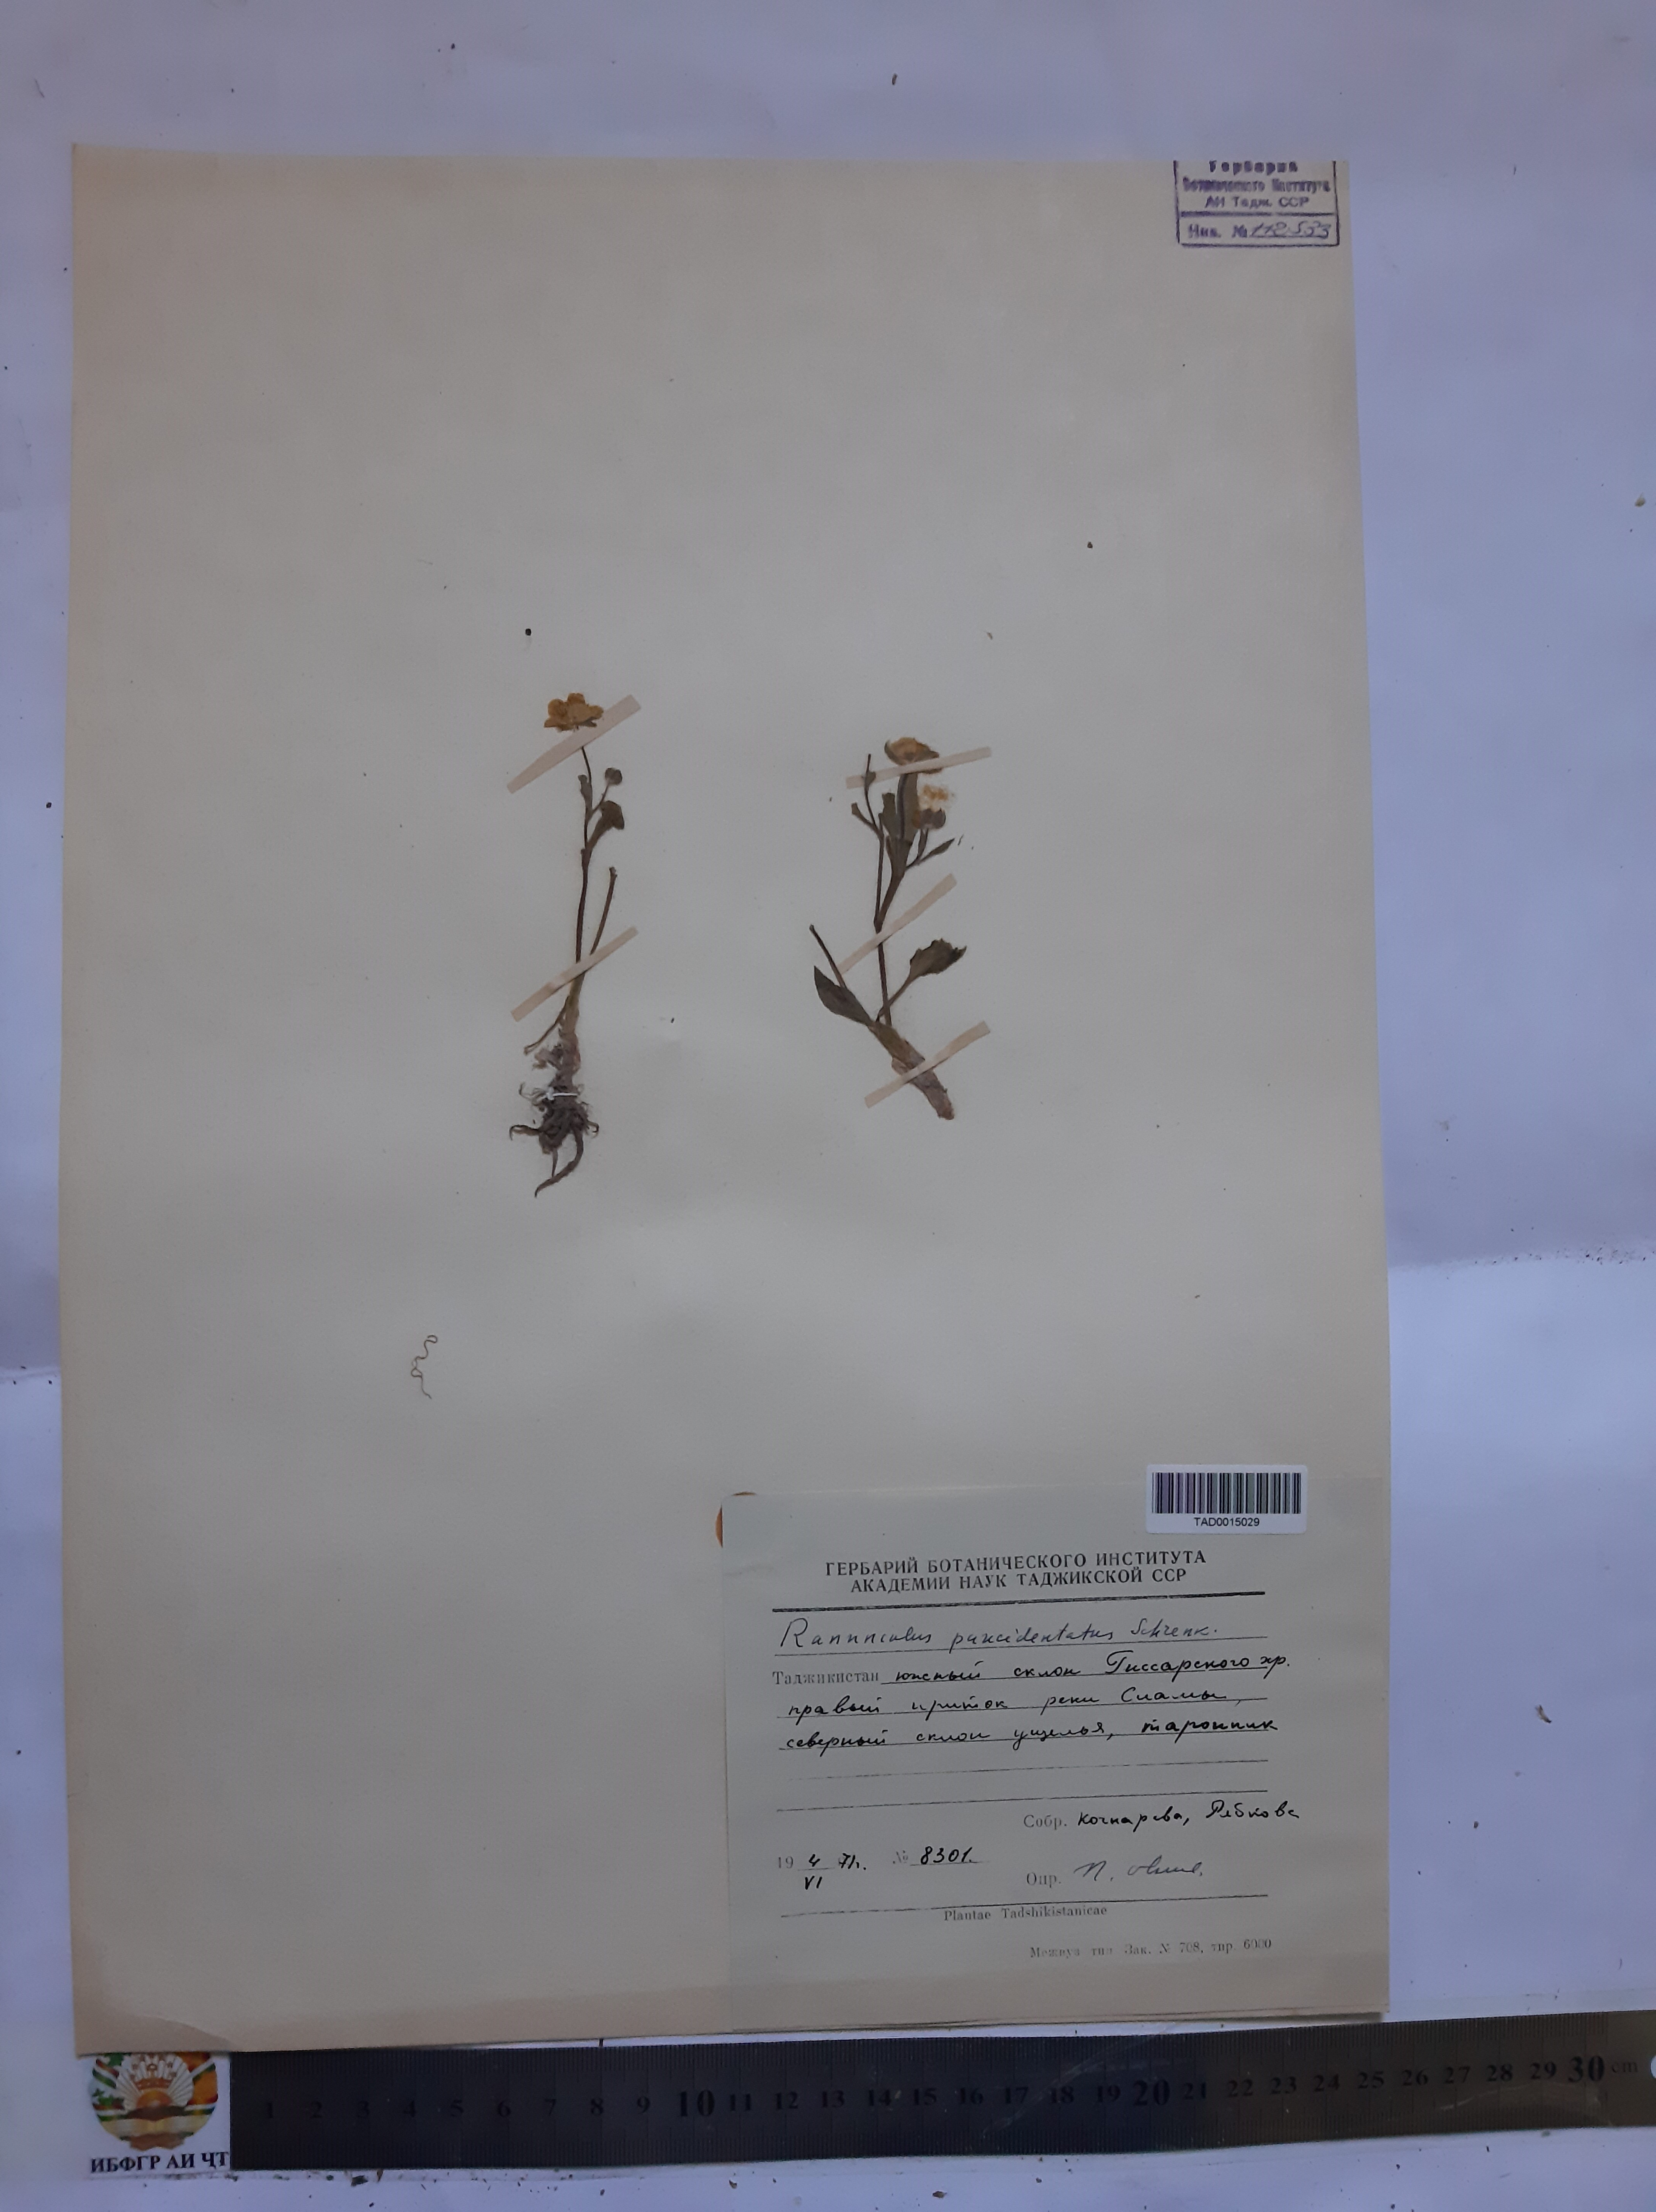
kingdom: Plantae
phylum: Tracheophyta
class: Magnoliopsida
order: Ranunculales
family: Ranunculaceae
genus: Ranunculus
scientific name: Ranunculus paucidentatus
